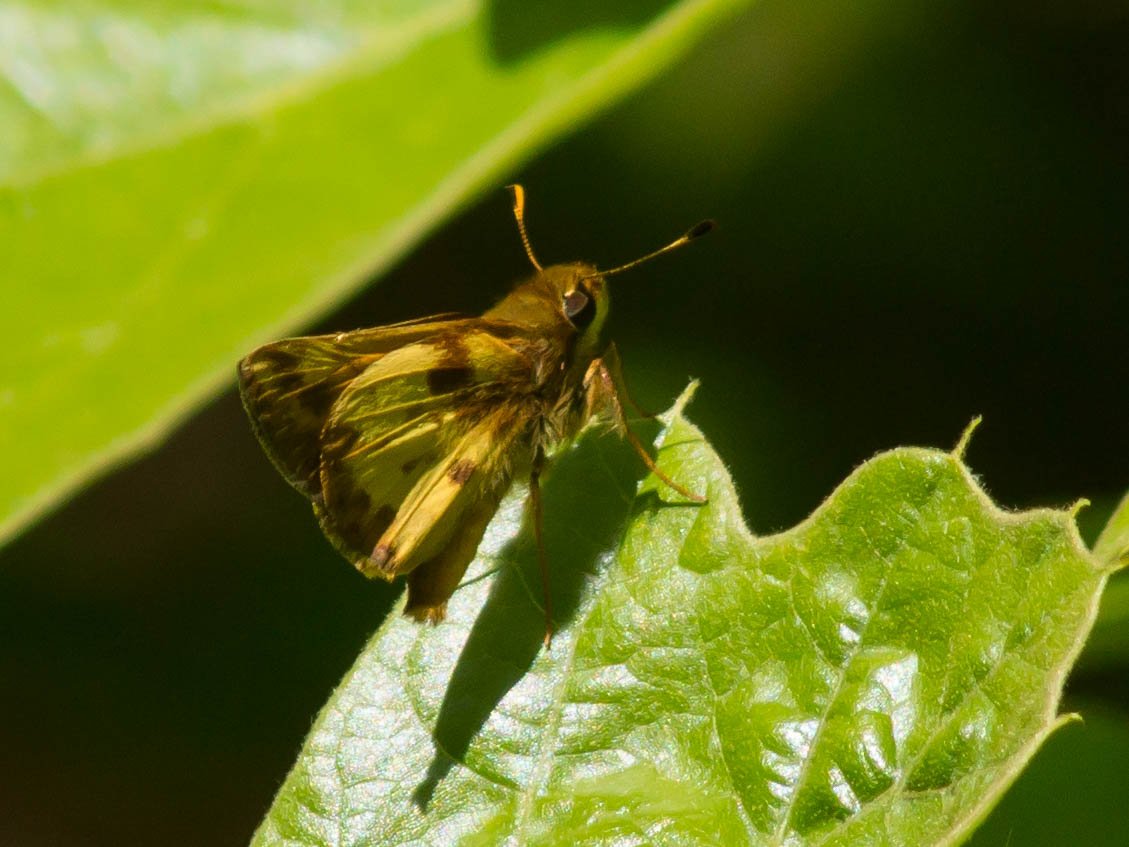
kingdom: Animalia
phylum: Arthropoda
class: Insecta
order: Lepidoptera
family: Hesperiidae
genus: Lon
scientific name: Lon zabulon
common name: Zabulon Skipper
